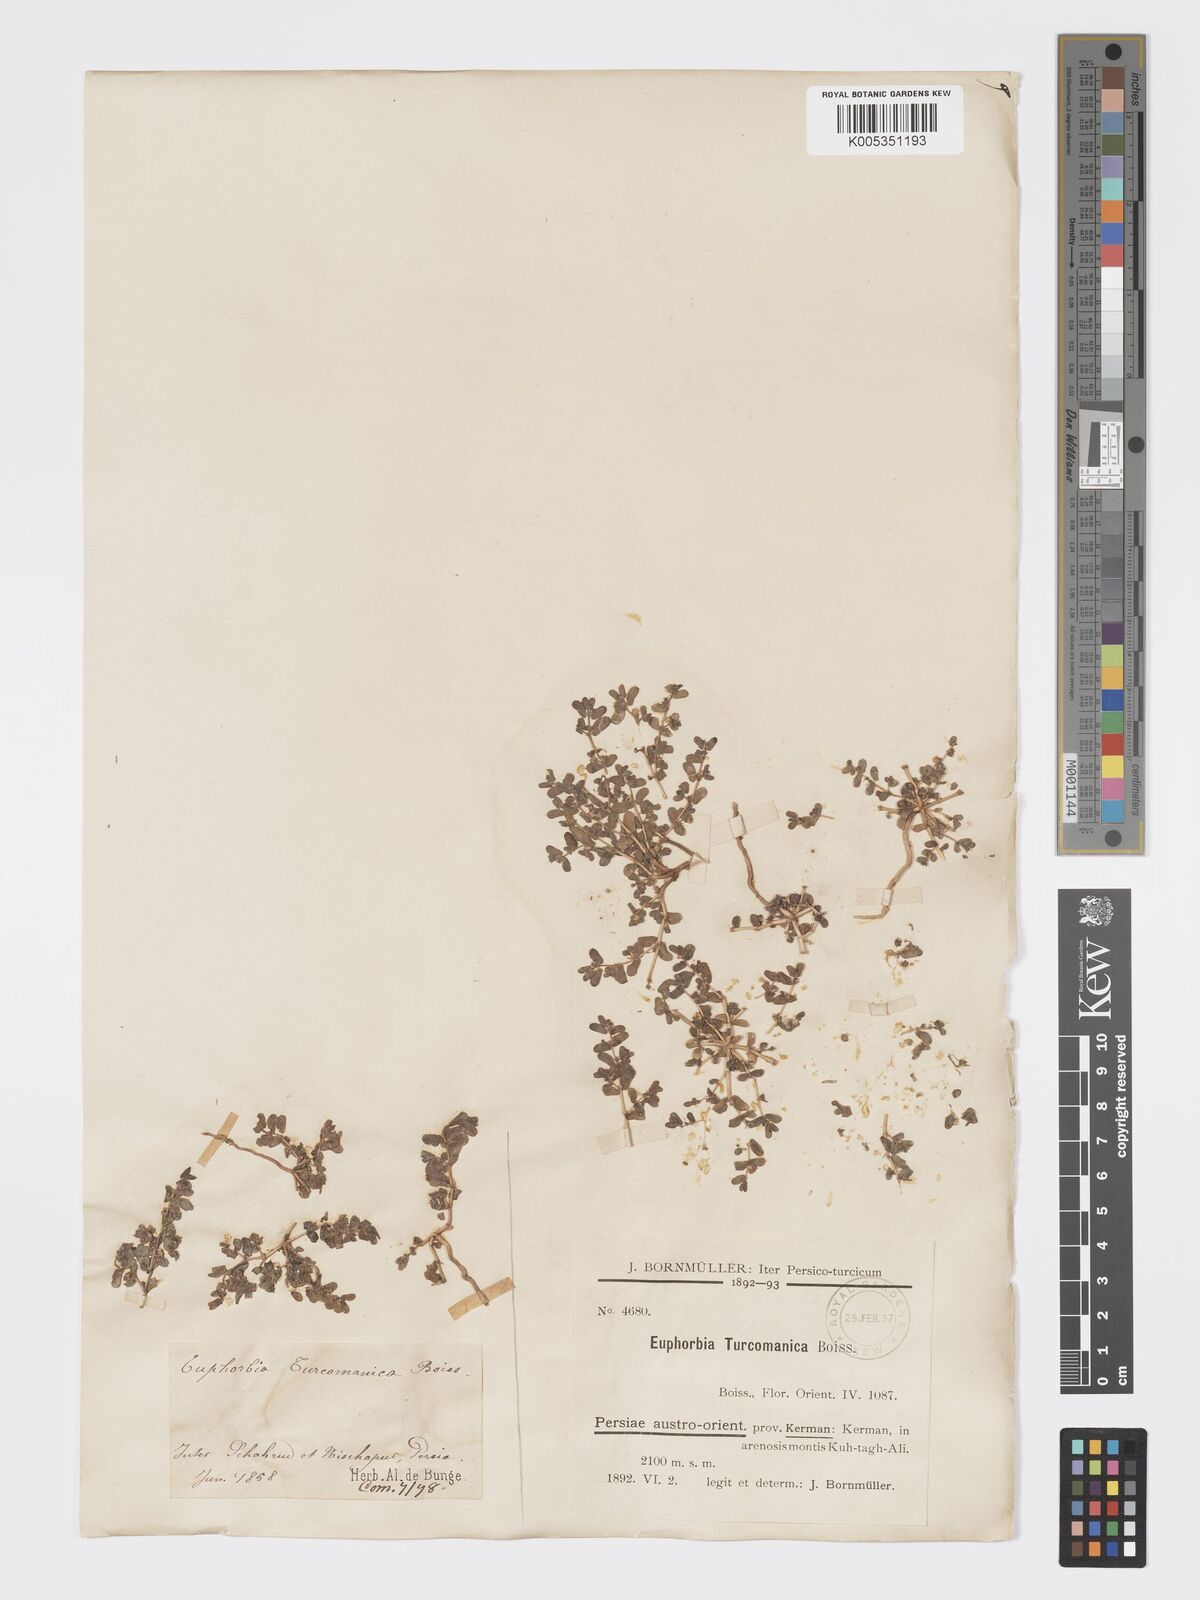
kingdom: Plantae
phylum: Tracheophyta
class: Magnoliopsida
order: Malpighiales
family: Euphorbiaceae
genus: Euphorbia
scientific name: Euphorbia granulata
